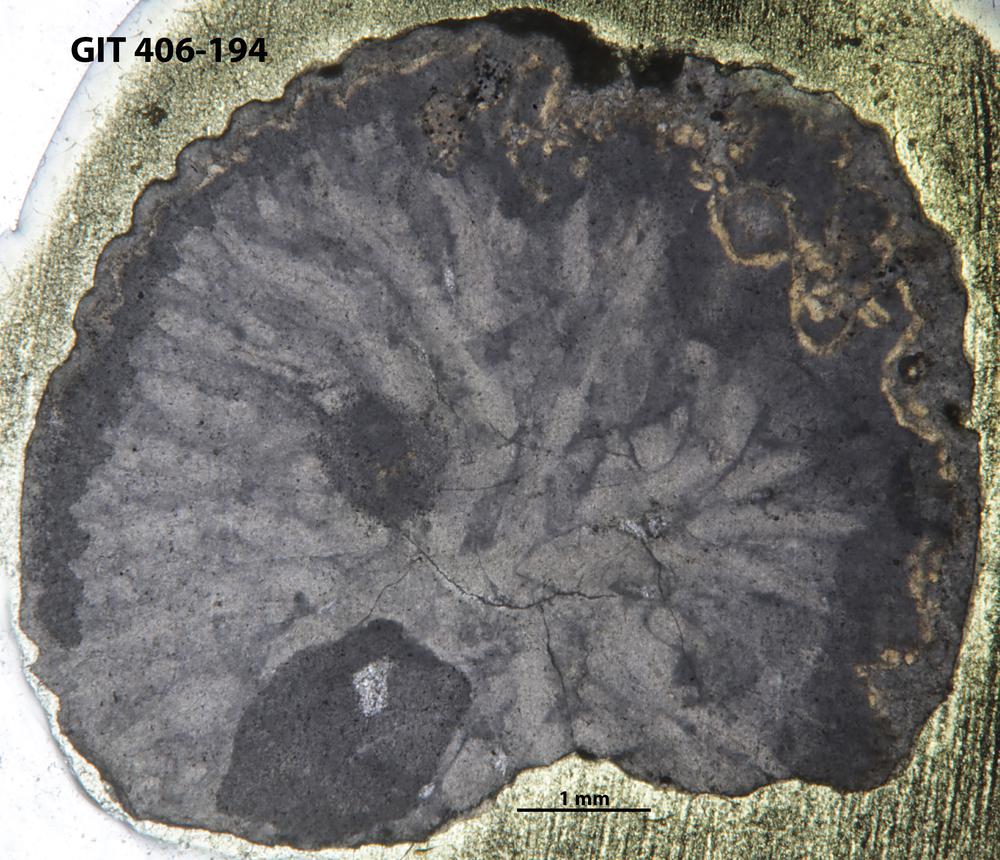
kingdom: Animalia
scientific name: Animalia
